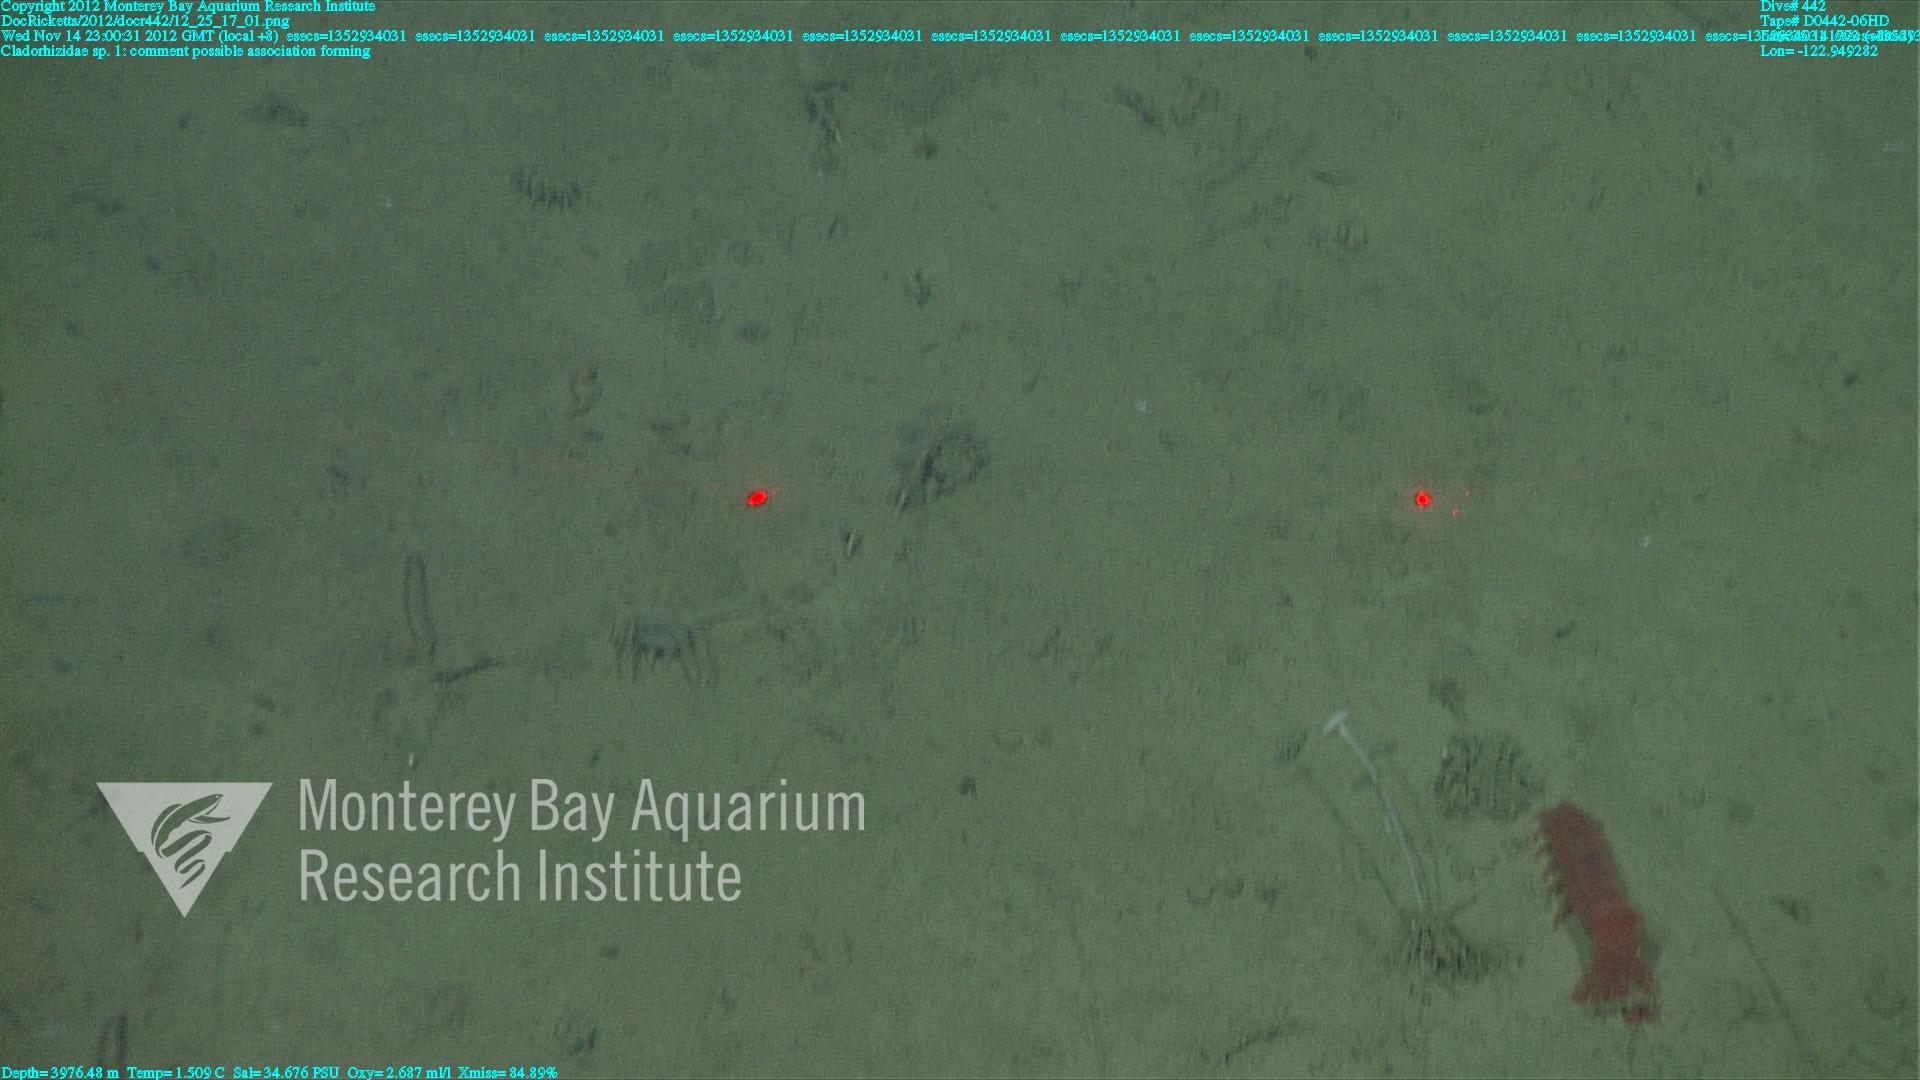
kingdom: Animalia
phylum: Porifera
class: Demospongiae
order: Poecilosclerida
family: Cladorhizidae
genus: Cladorhiza
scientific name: Cladorhiza
